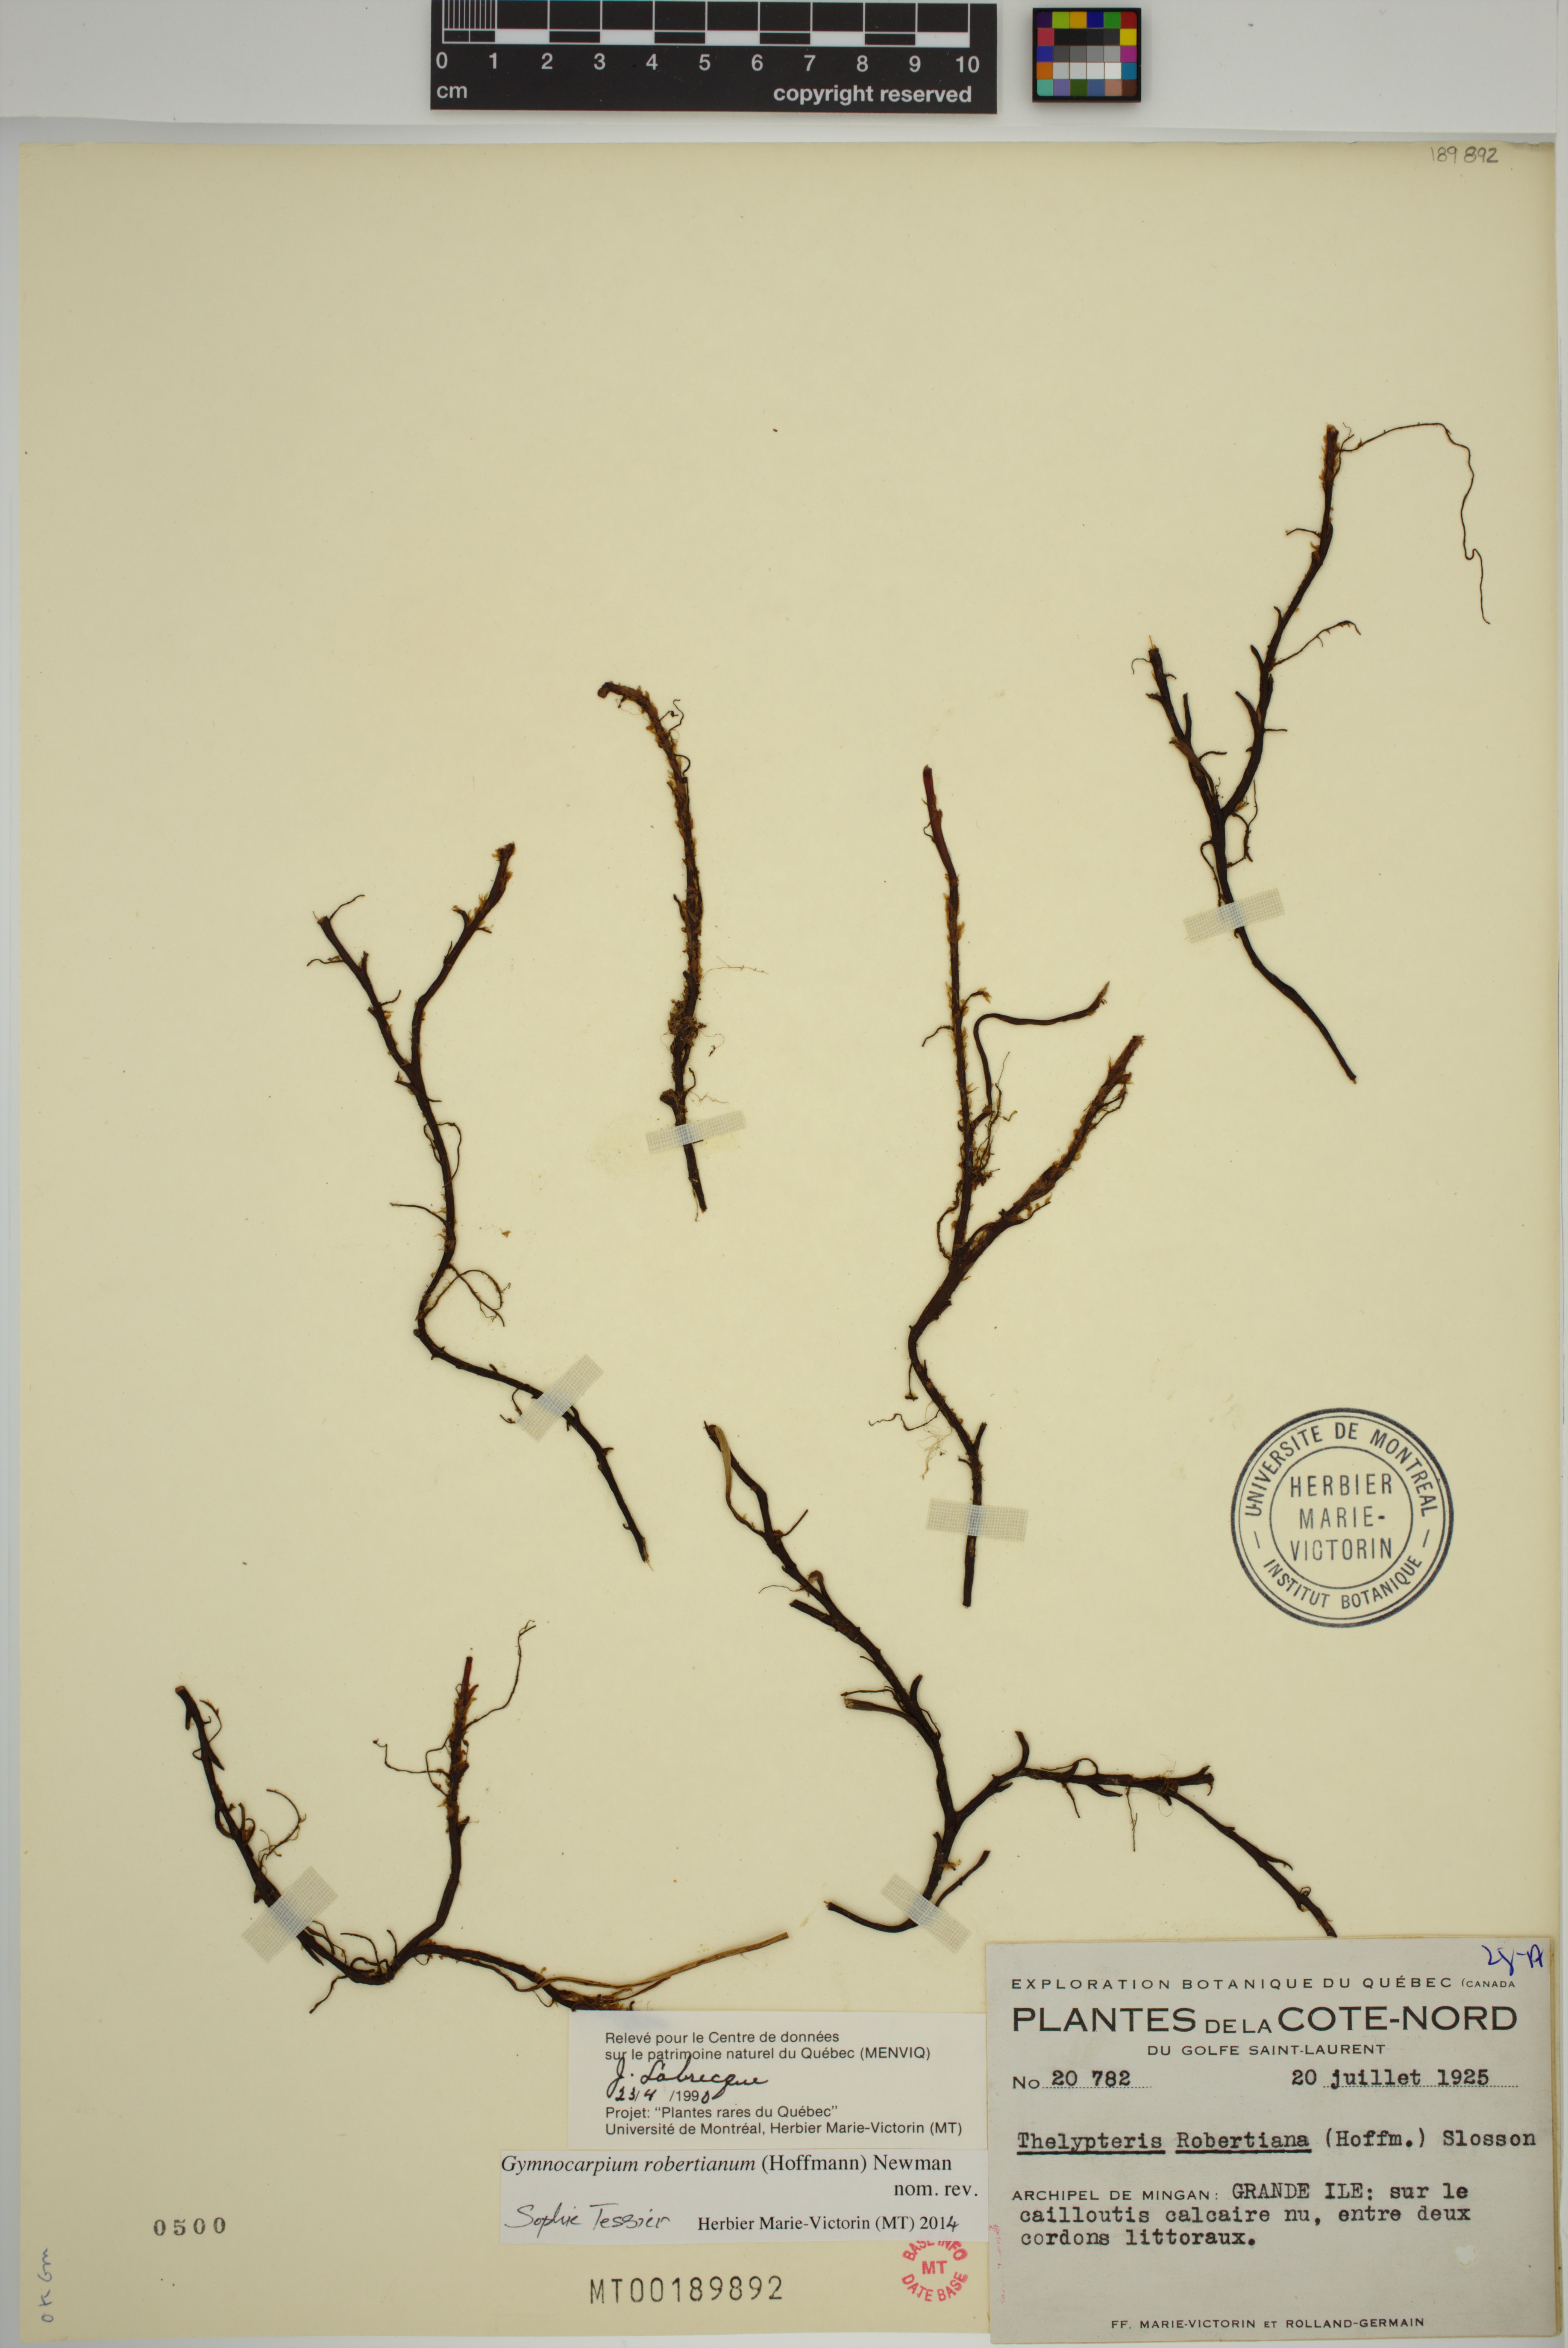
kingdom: Plantae
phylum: Tracheophyta
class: Polypodiopsida
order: Polypodiales
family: Cystopteridaceae
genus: Gymnocarpium
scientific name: Gymnocarpium robertianum
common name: Limestone fern
